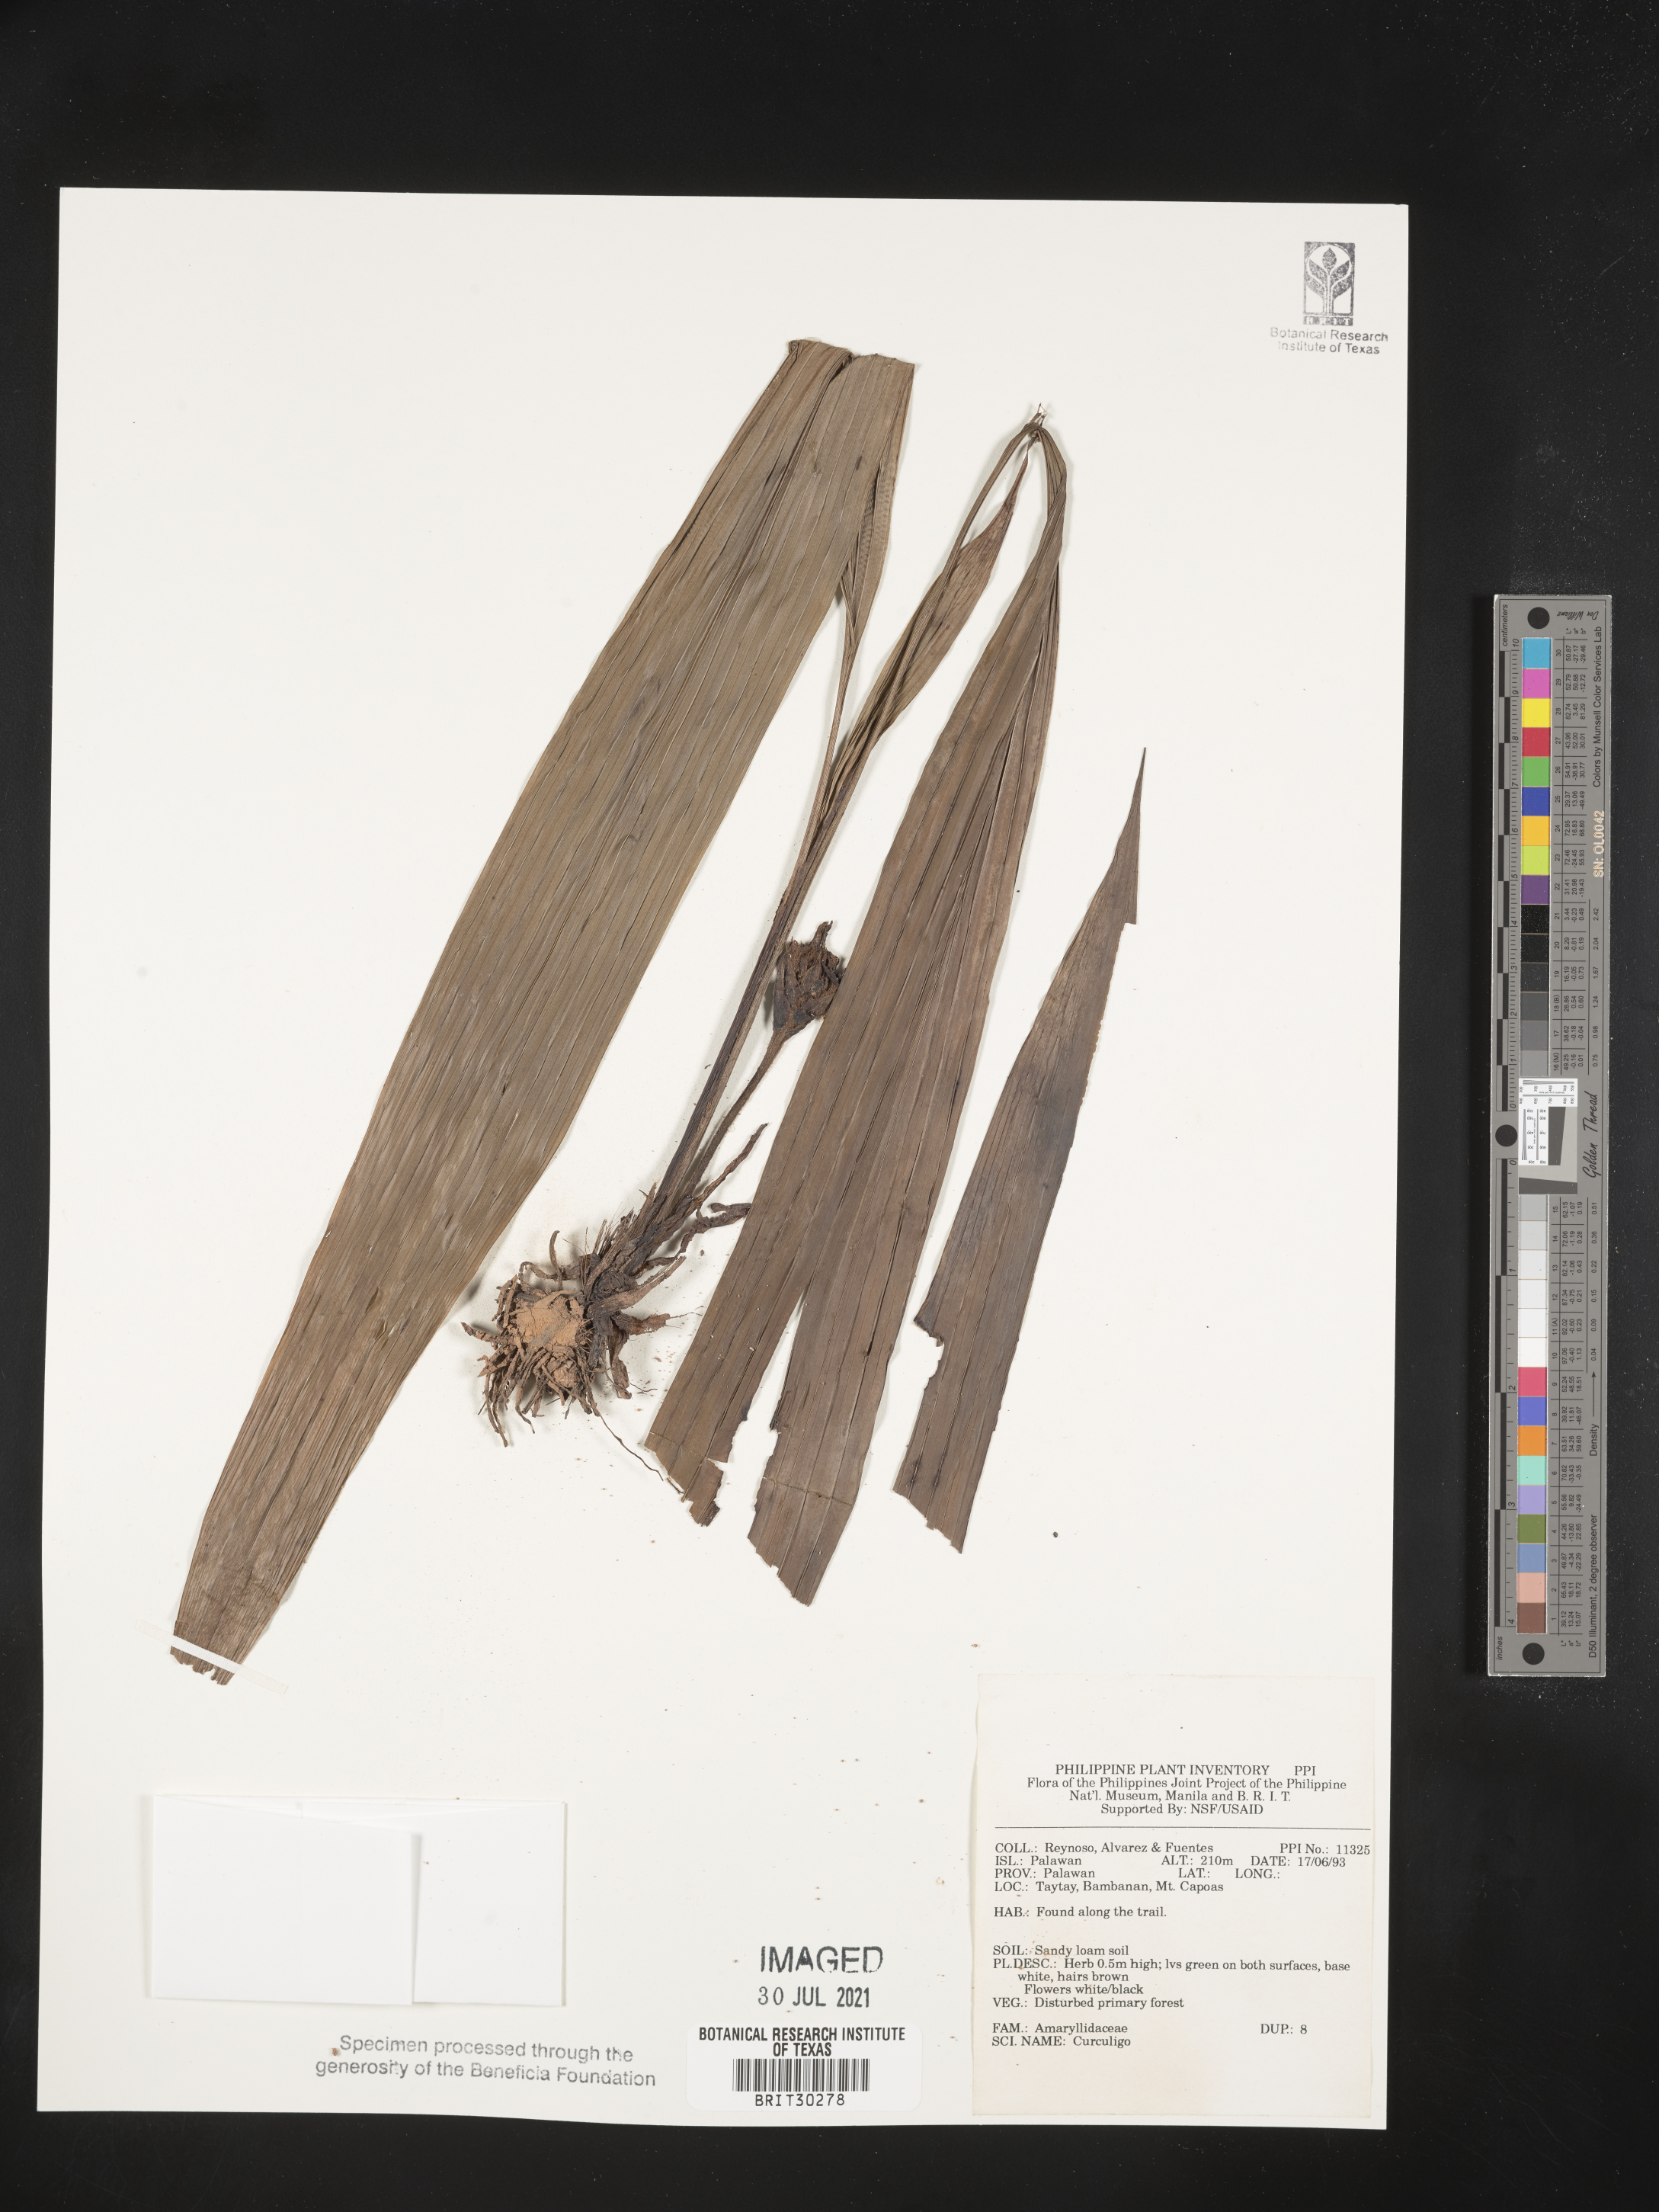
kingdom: Plantae
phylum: Tracheophyta
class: Liliopsida
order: Asparagales
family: Hypoxidaceae
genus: Curculigo
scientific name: Curculigo
